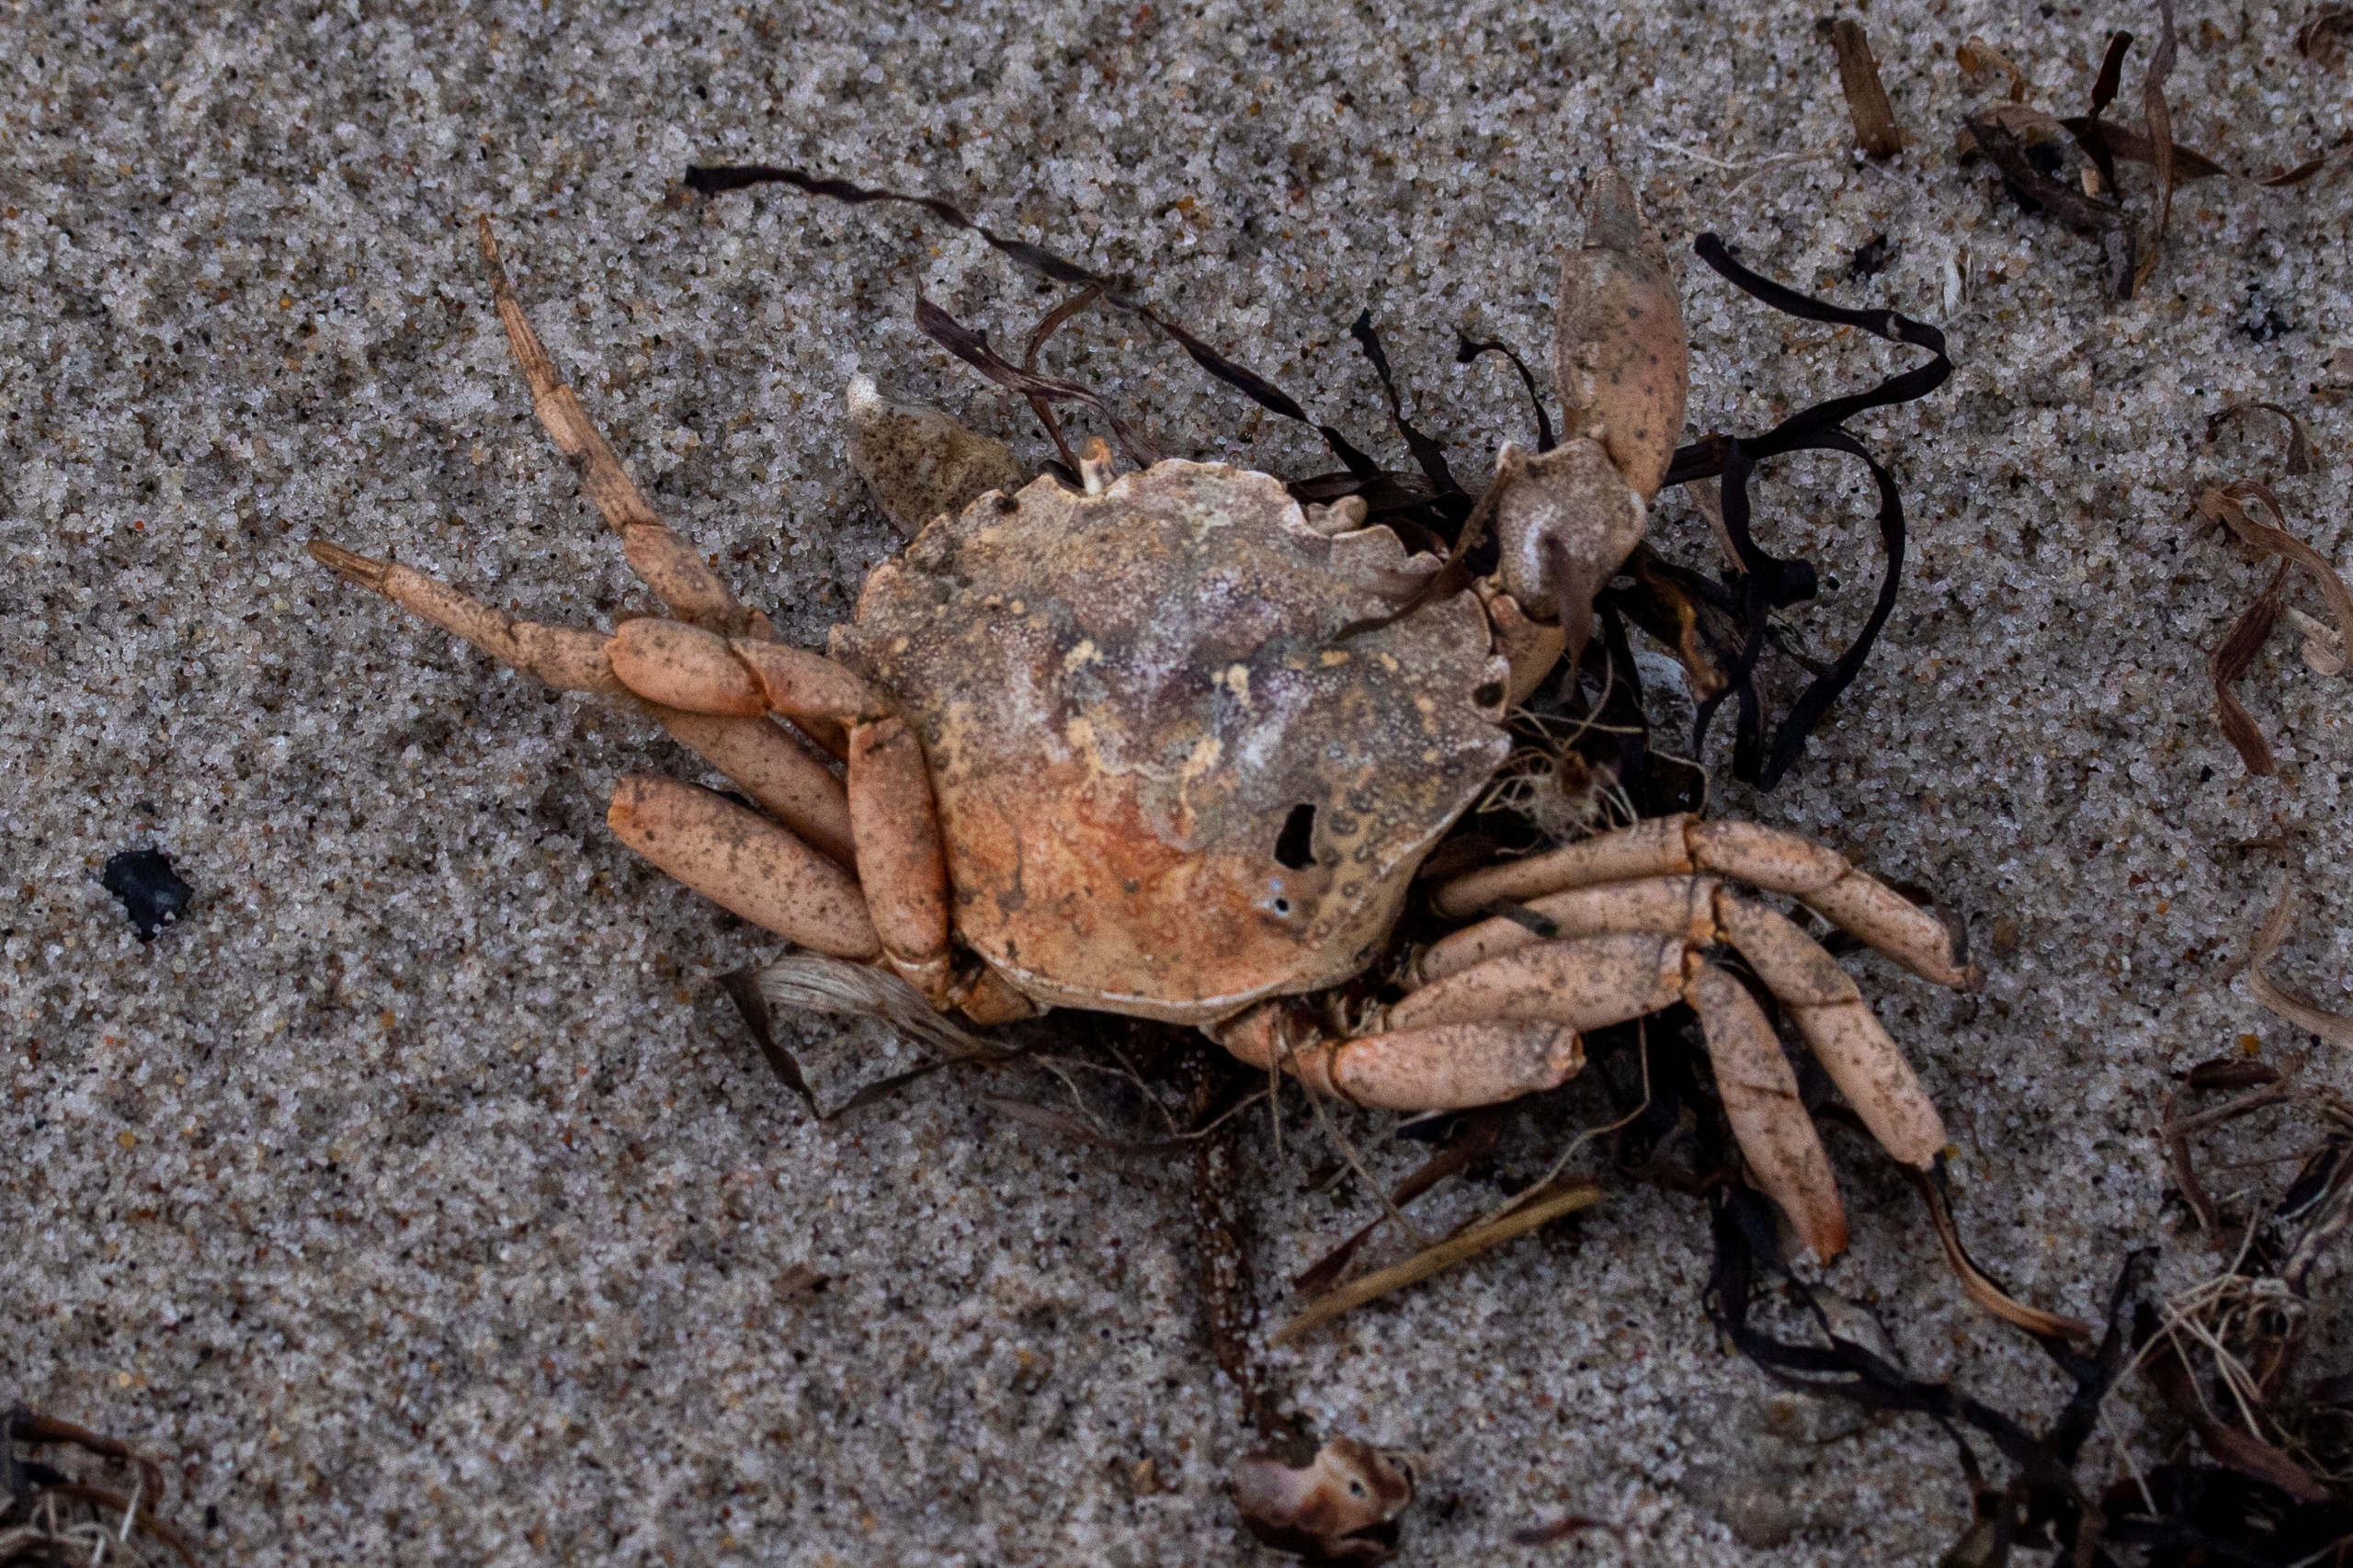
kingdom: Animalia
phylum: Arthropoda
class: Malacostraca
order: Decapoda
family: Carcinidae
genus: Carcinus
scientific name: Carcinus maenas
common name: Almindelig strandkrabbe
